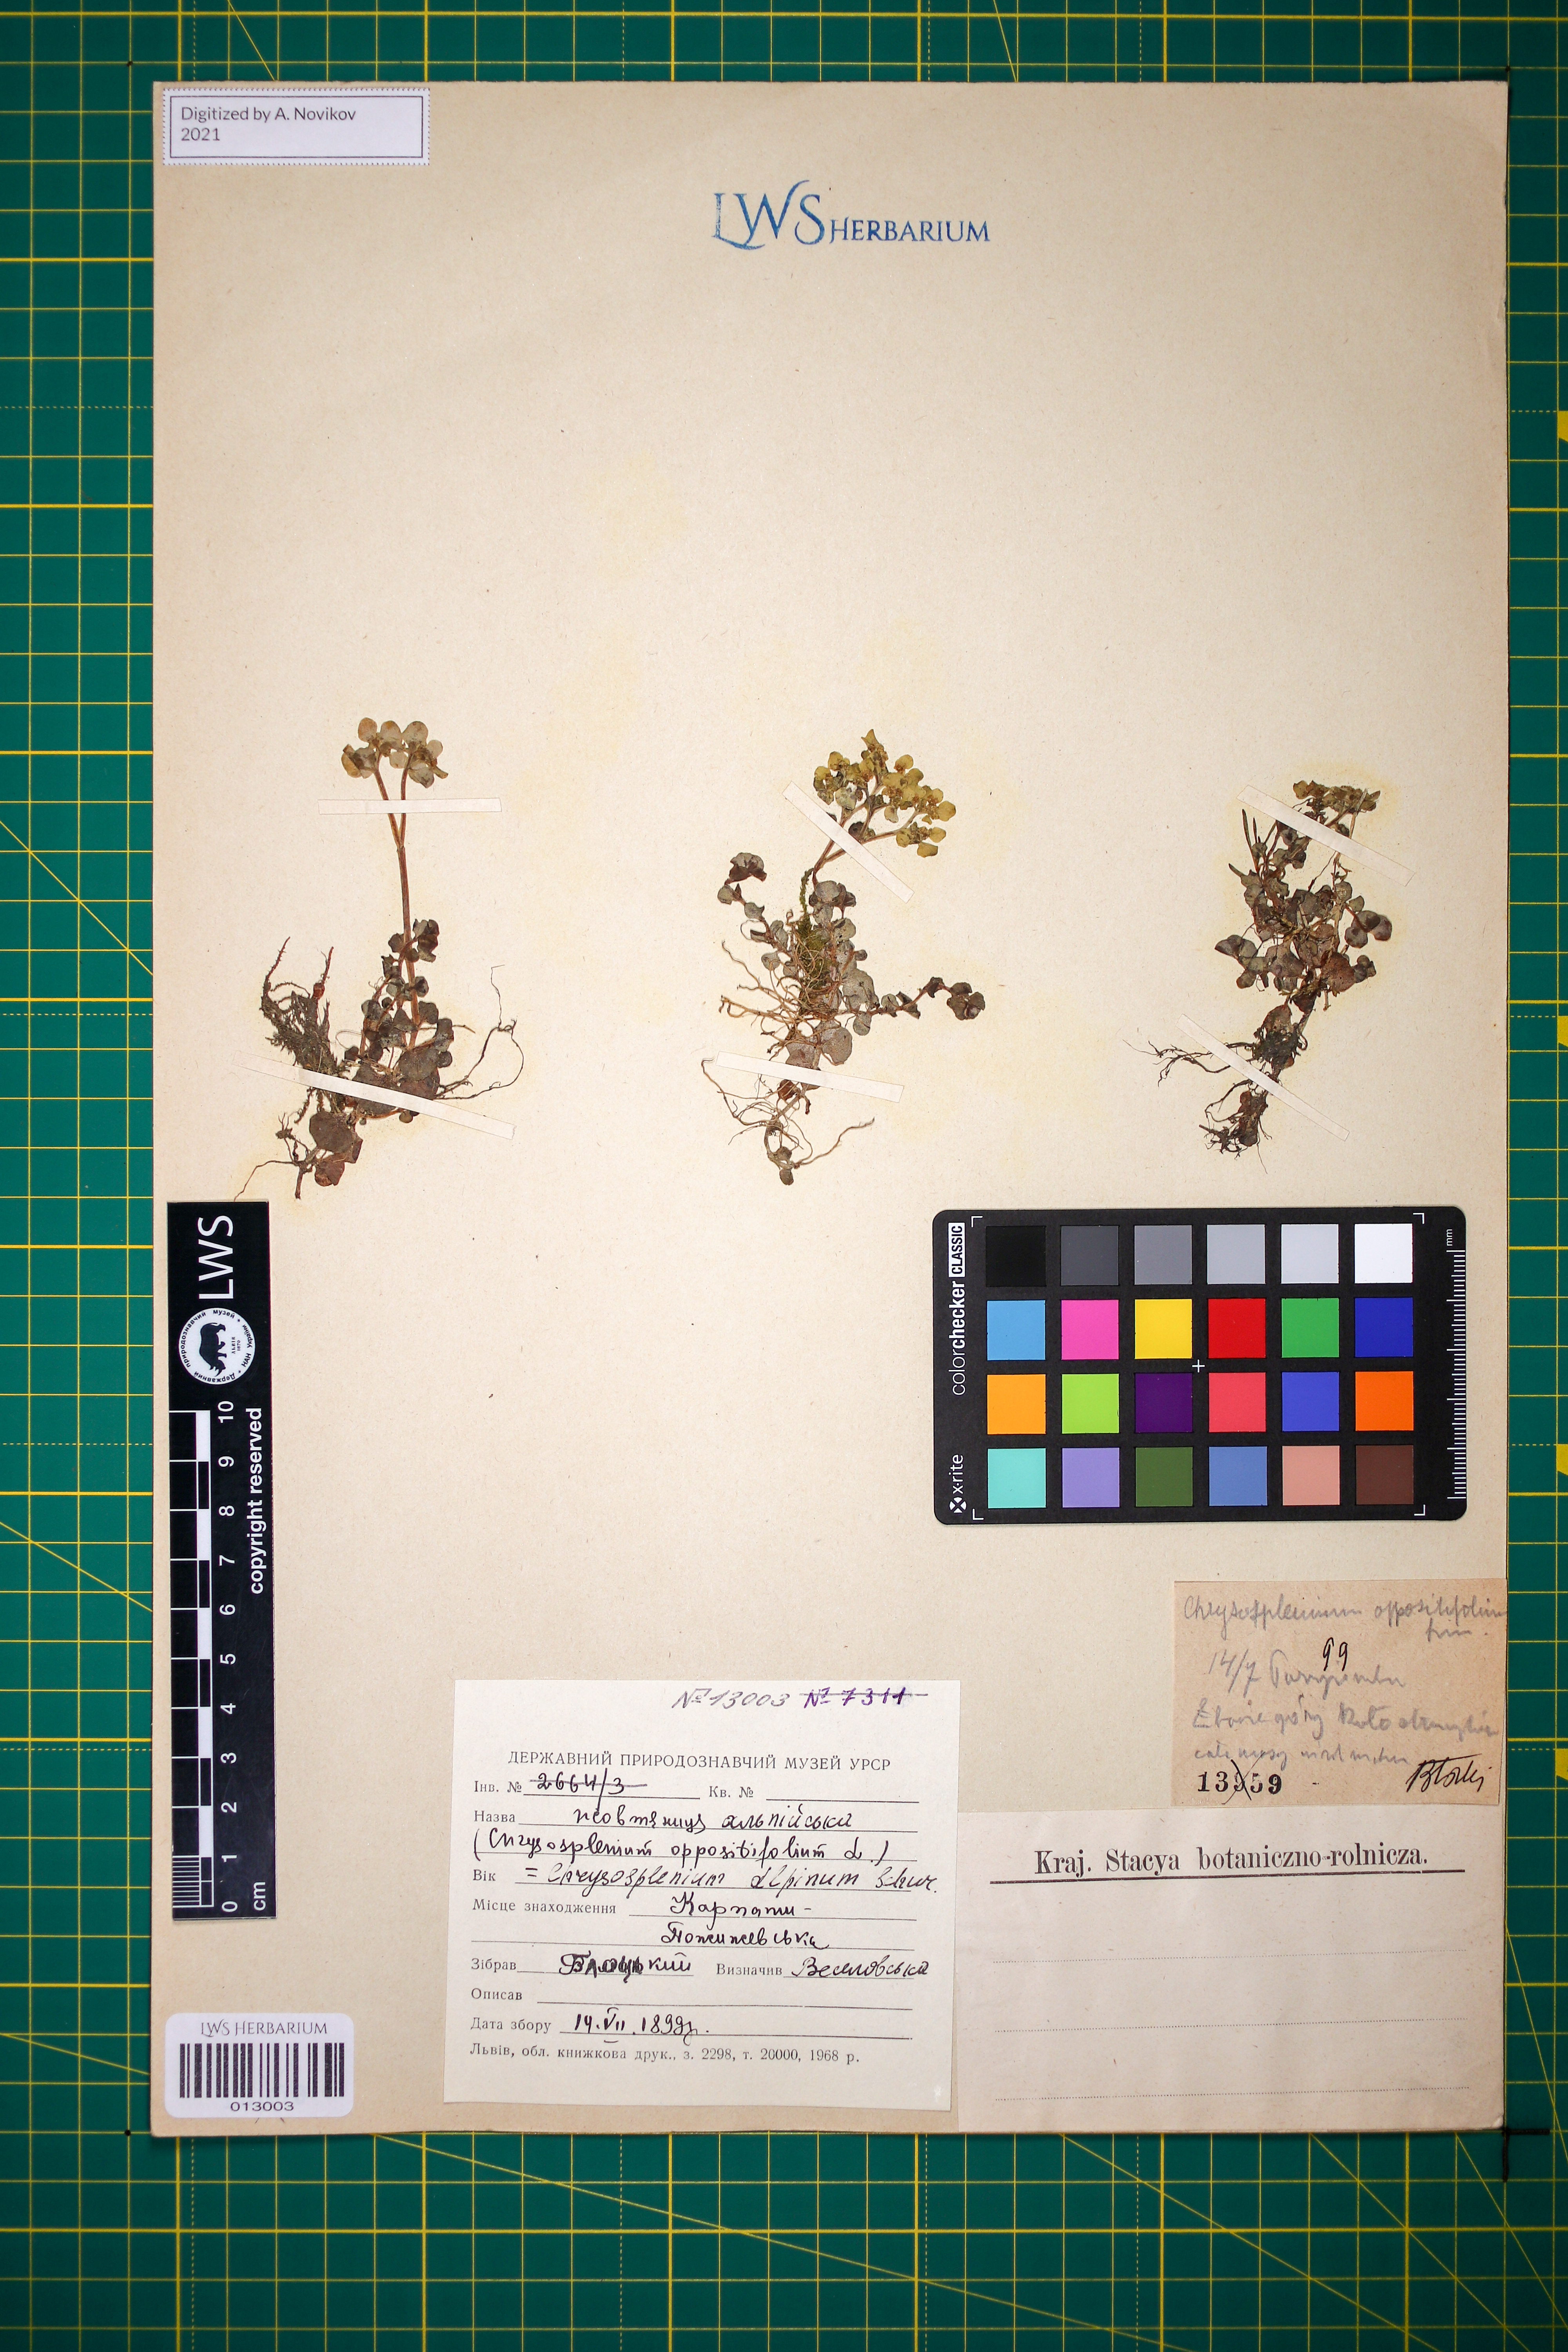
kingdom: Plantae
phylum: Tracheophyta
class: Magnoliopsida
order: Saxifragales
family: Saxifragaceae
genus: Chrysosplenium
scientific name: Chrysosplenium alpinum
